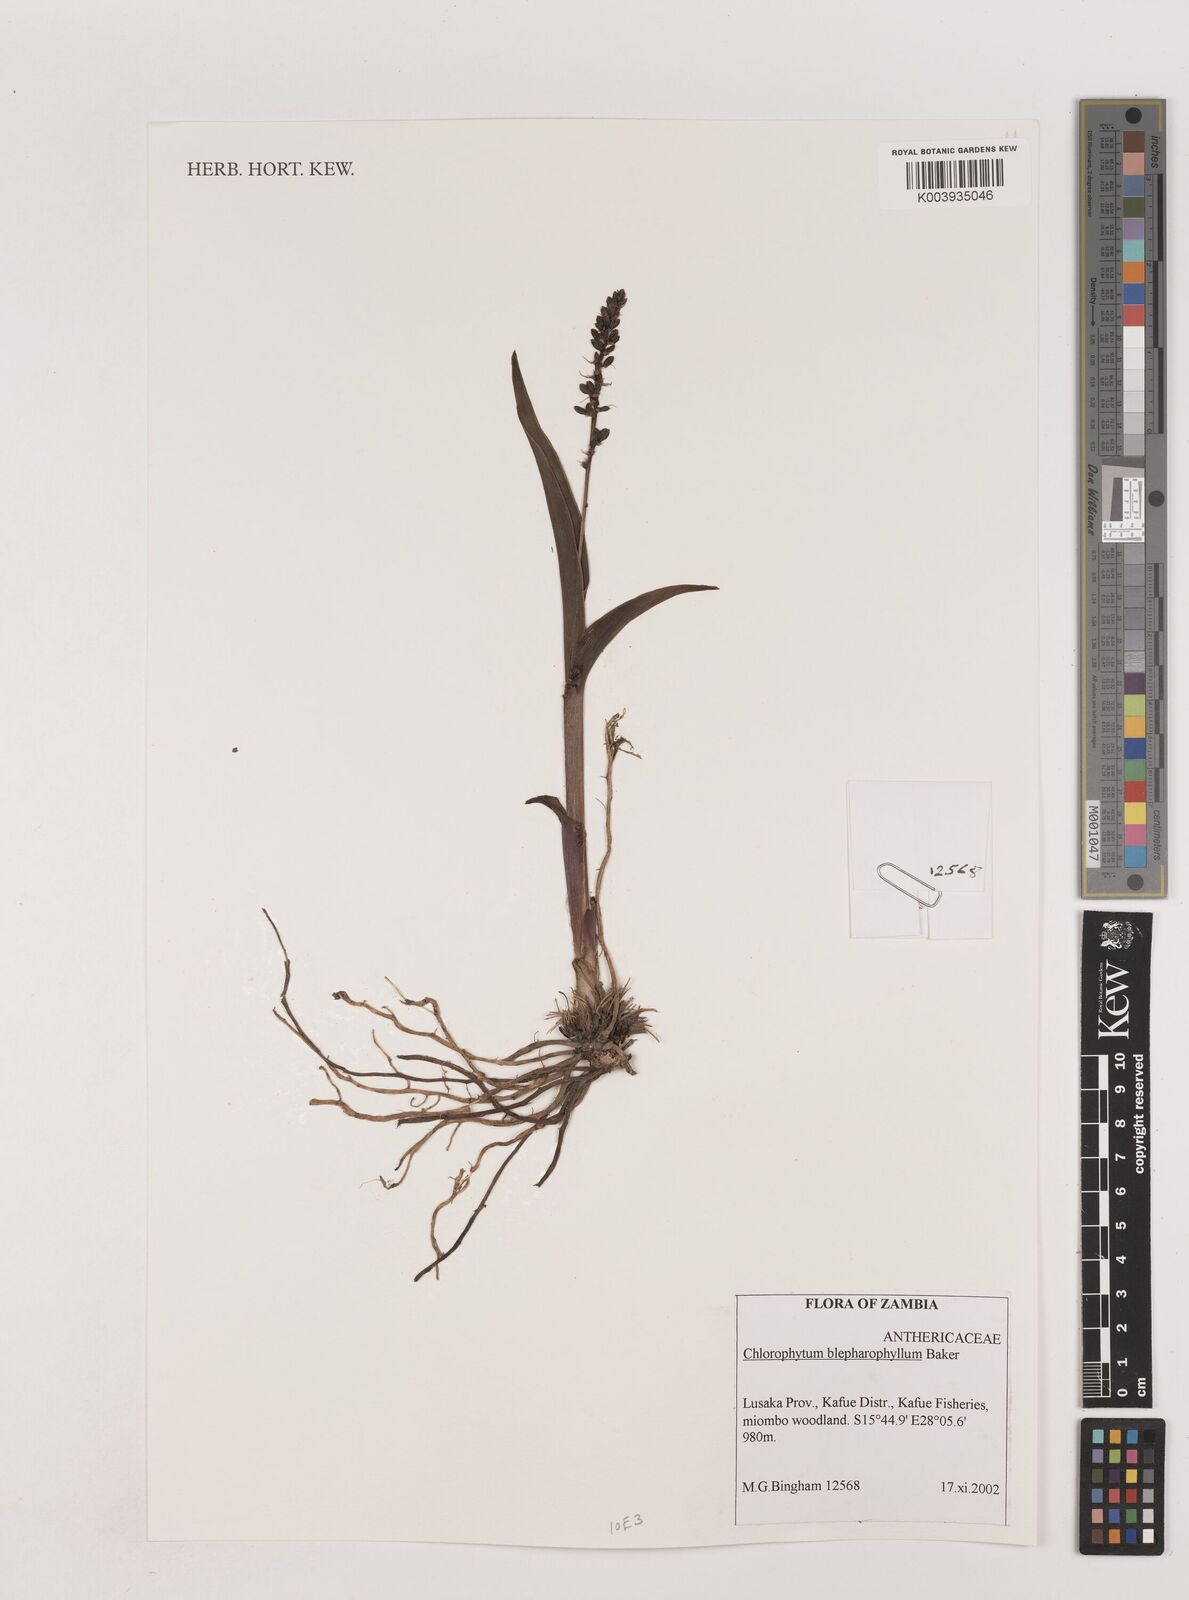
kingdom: Plantae
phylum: Tracheophyta
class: Liliopsida
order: Asparagales
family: Asparagaceae
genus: Chlorophytum
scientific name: Chlorophytum blepharophyllum
